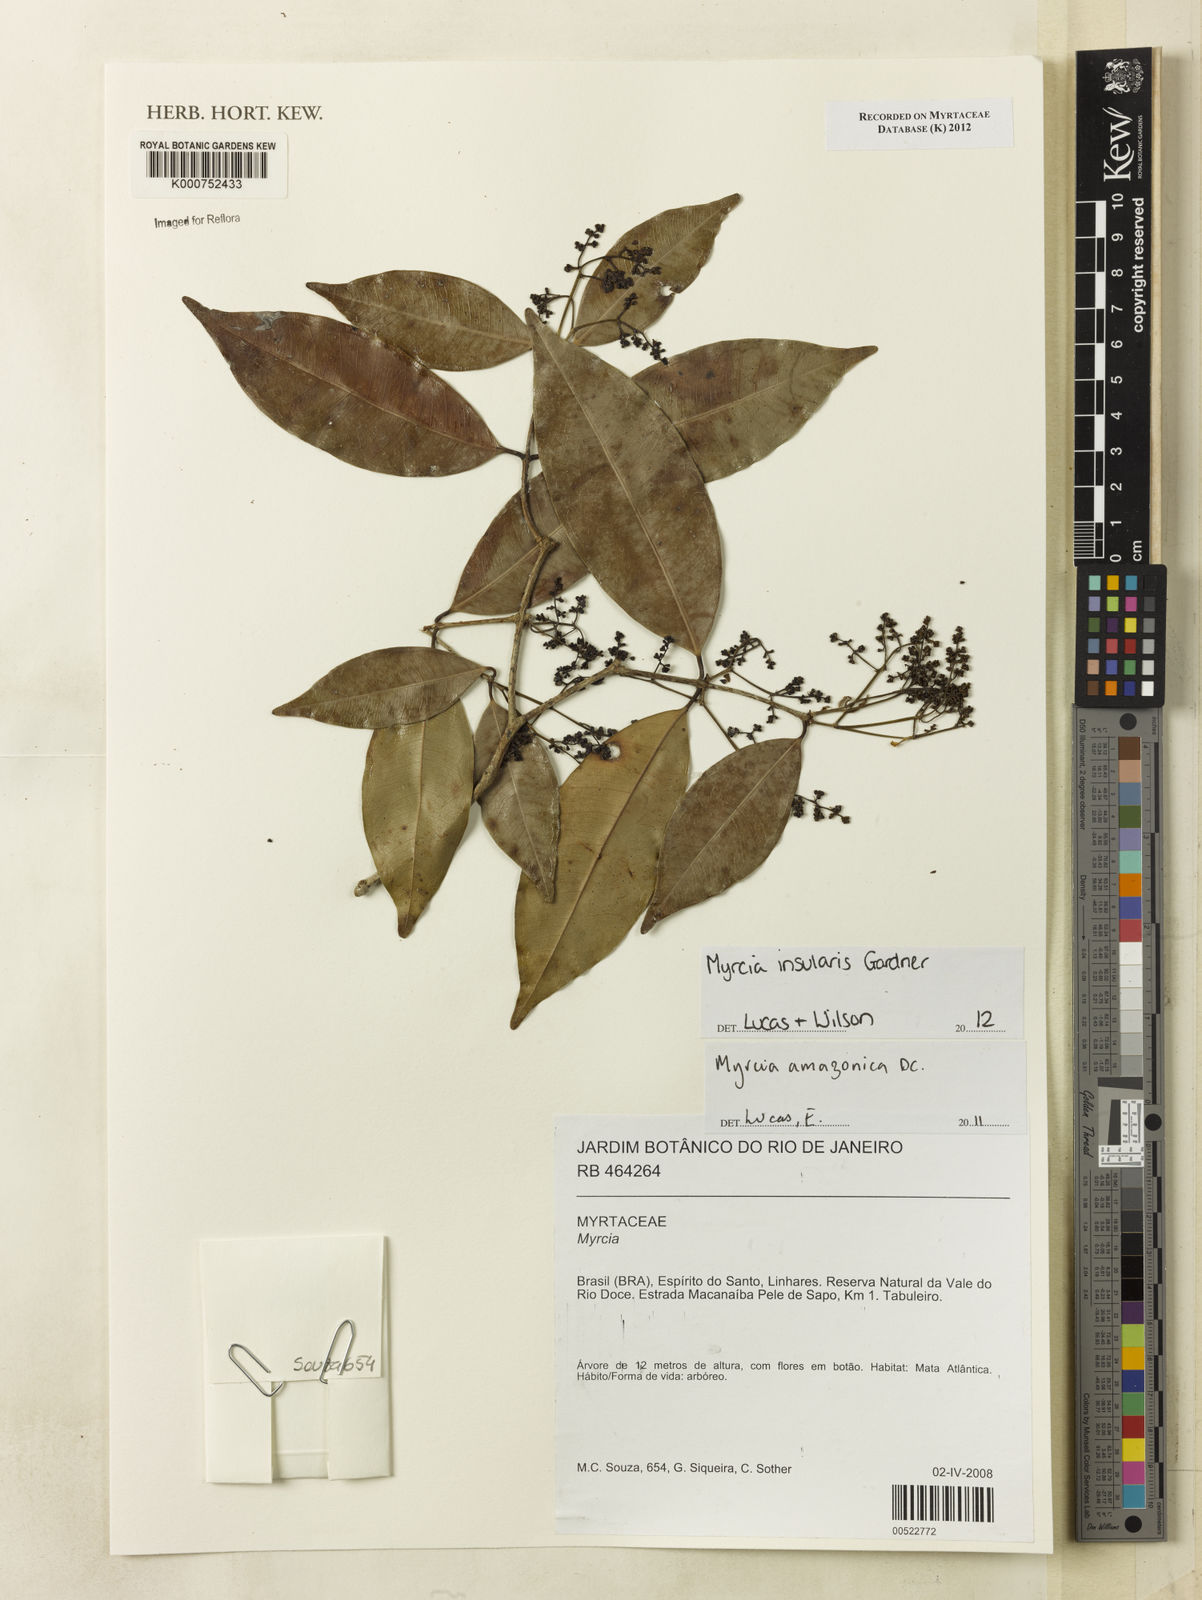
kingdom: Plantae
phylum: Tracheophyta
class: Magnoliopsida
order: Myrtales
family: Myrtaceae
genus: Myrcia
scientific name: Myrcia insularis
